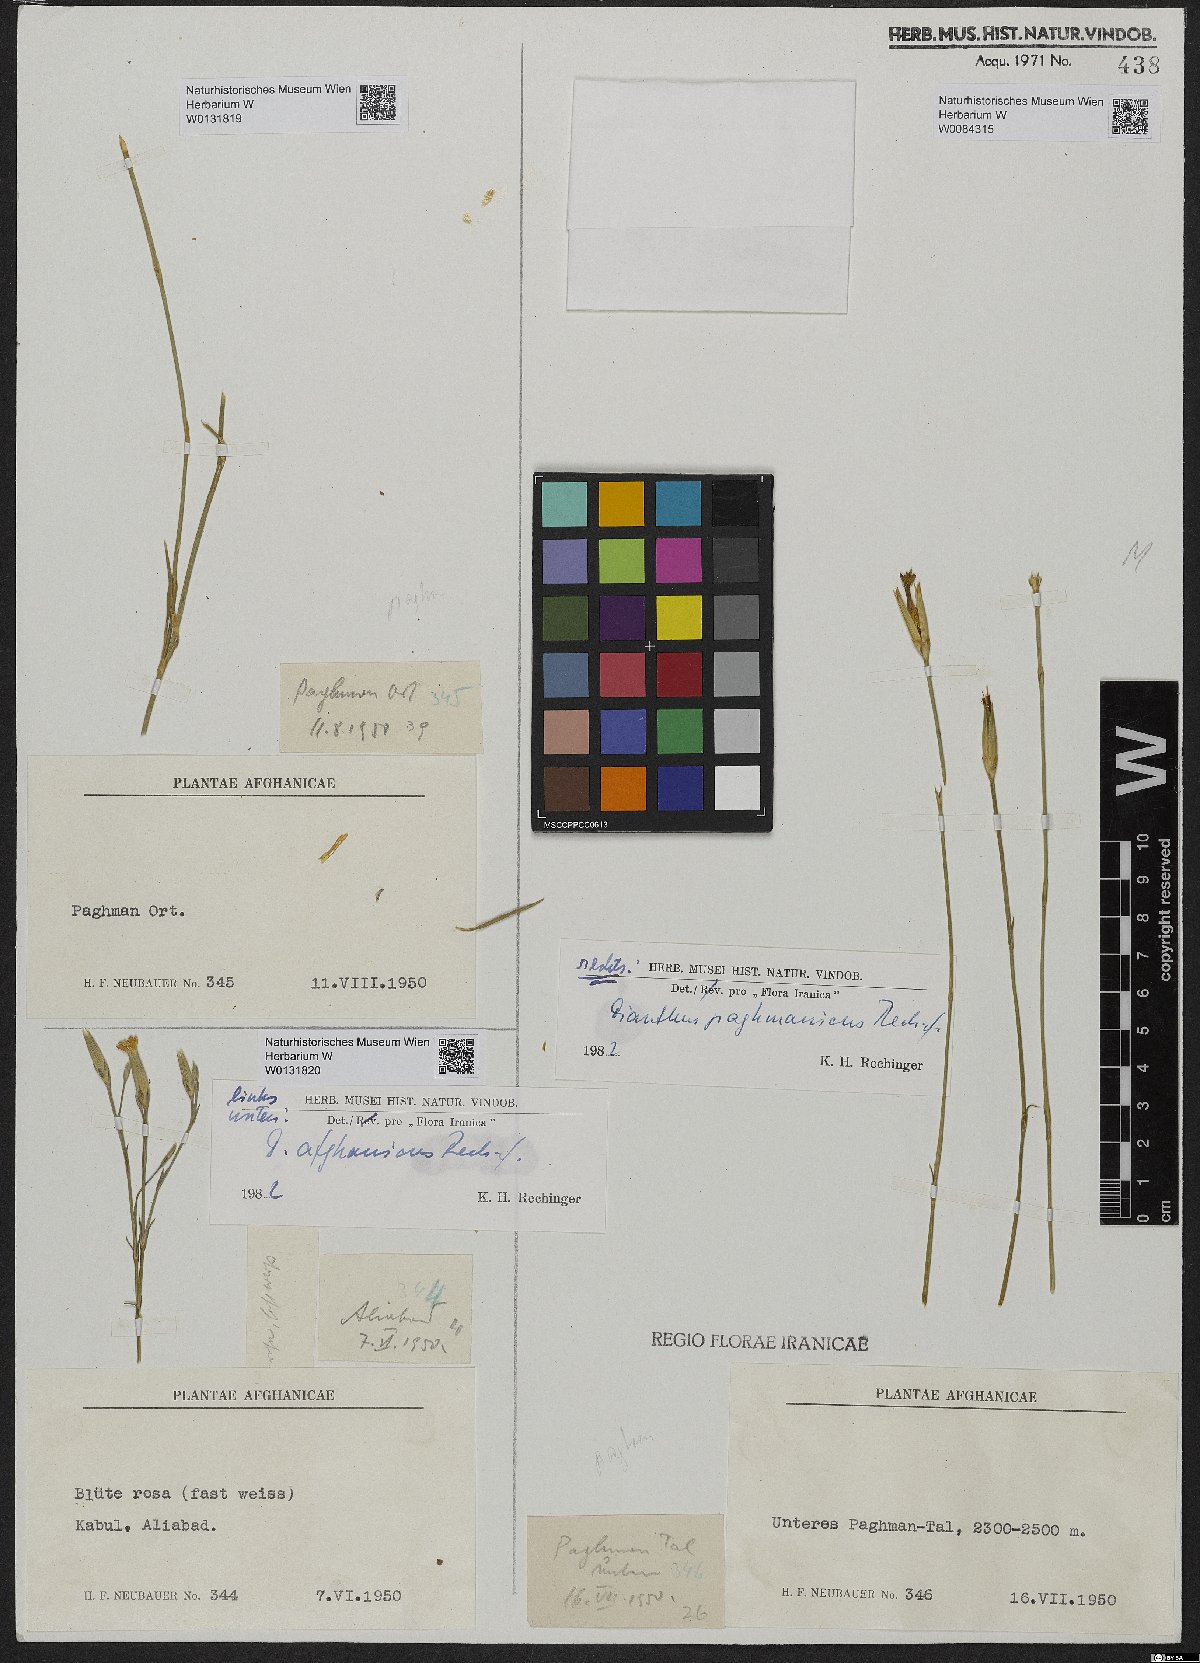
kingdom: Plantae
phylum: Tracheophyta
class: Magnoliopsida
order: Caryophyllales
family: Caryophyllaceae
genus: Dianthus
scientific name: Dianthus afghanicus
